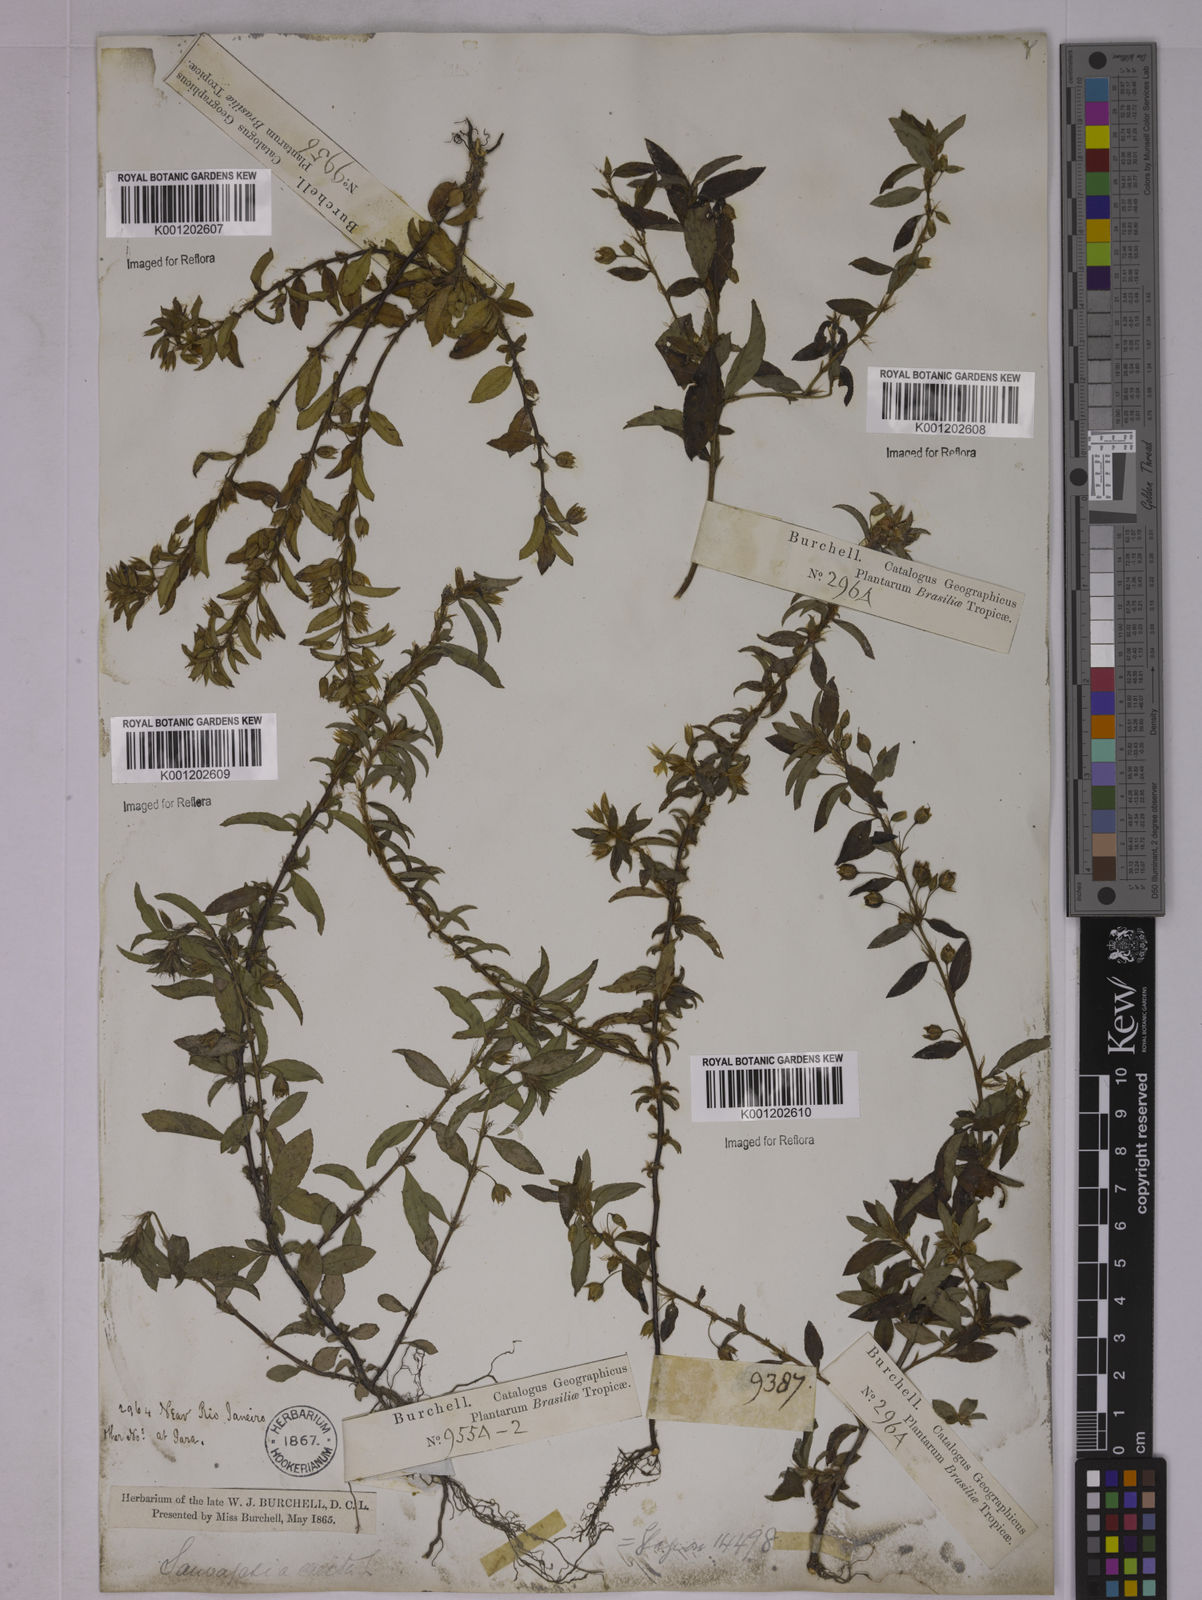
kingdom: Plantae
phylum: Tracheophyta
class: Magnoliopsida
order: Malpighiales
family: Ochnaceae
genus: Sauvagesia
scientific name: Sauvagesia erecta
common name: Creole tea
